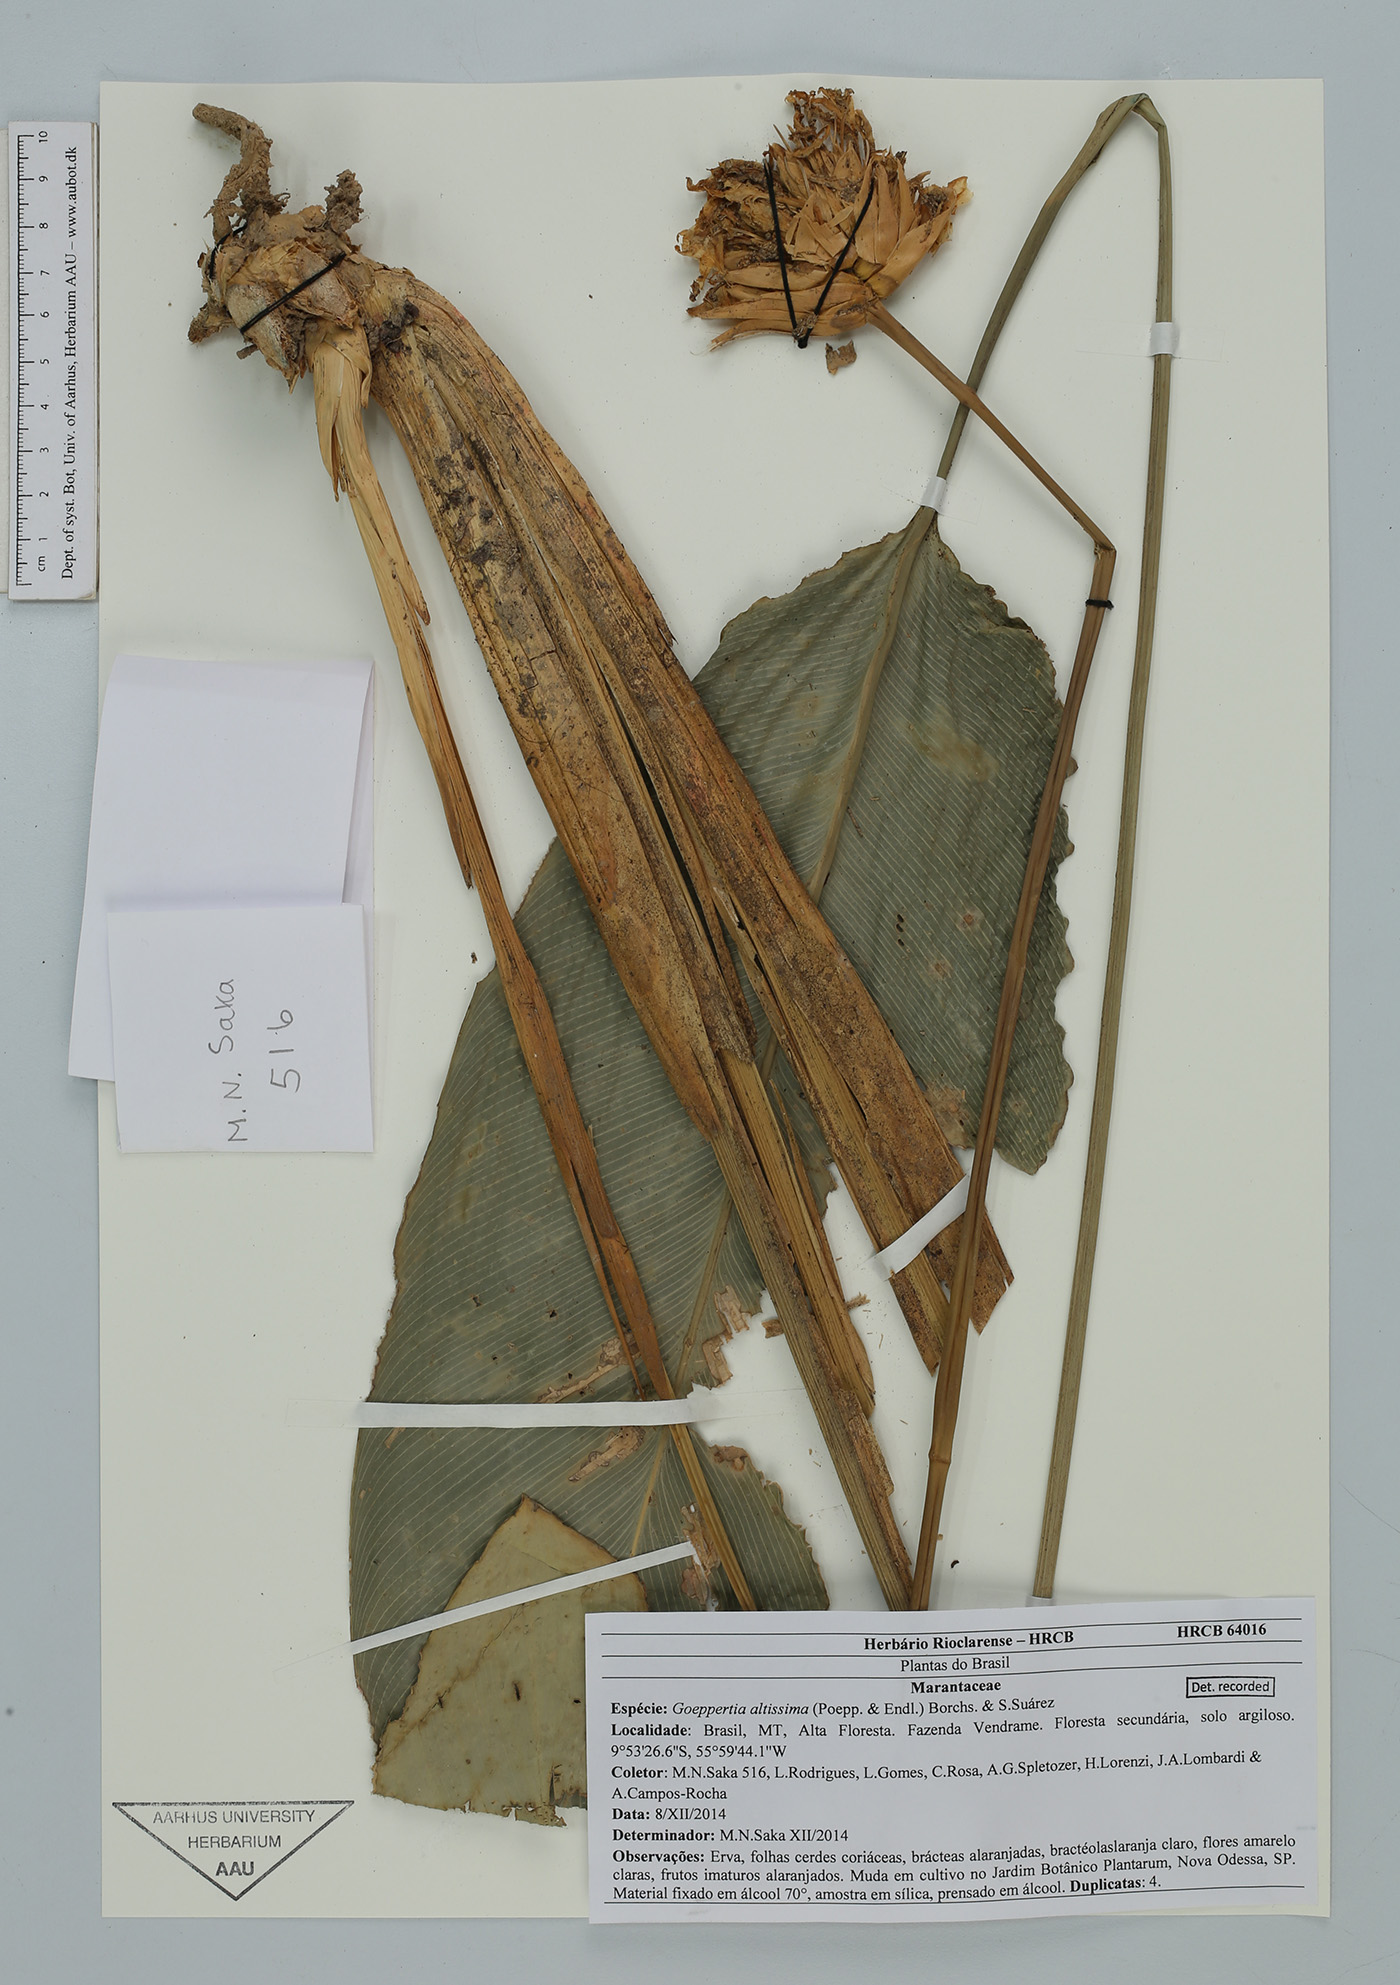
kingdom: Plantae
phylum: Tracheophyta
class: Liliopsida
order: Zingiberales
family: Marantaceae
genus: Goeppertia
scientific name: Goeppertia altissima
